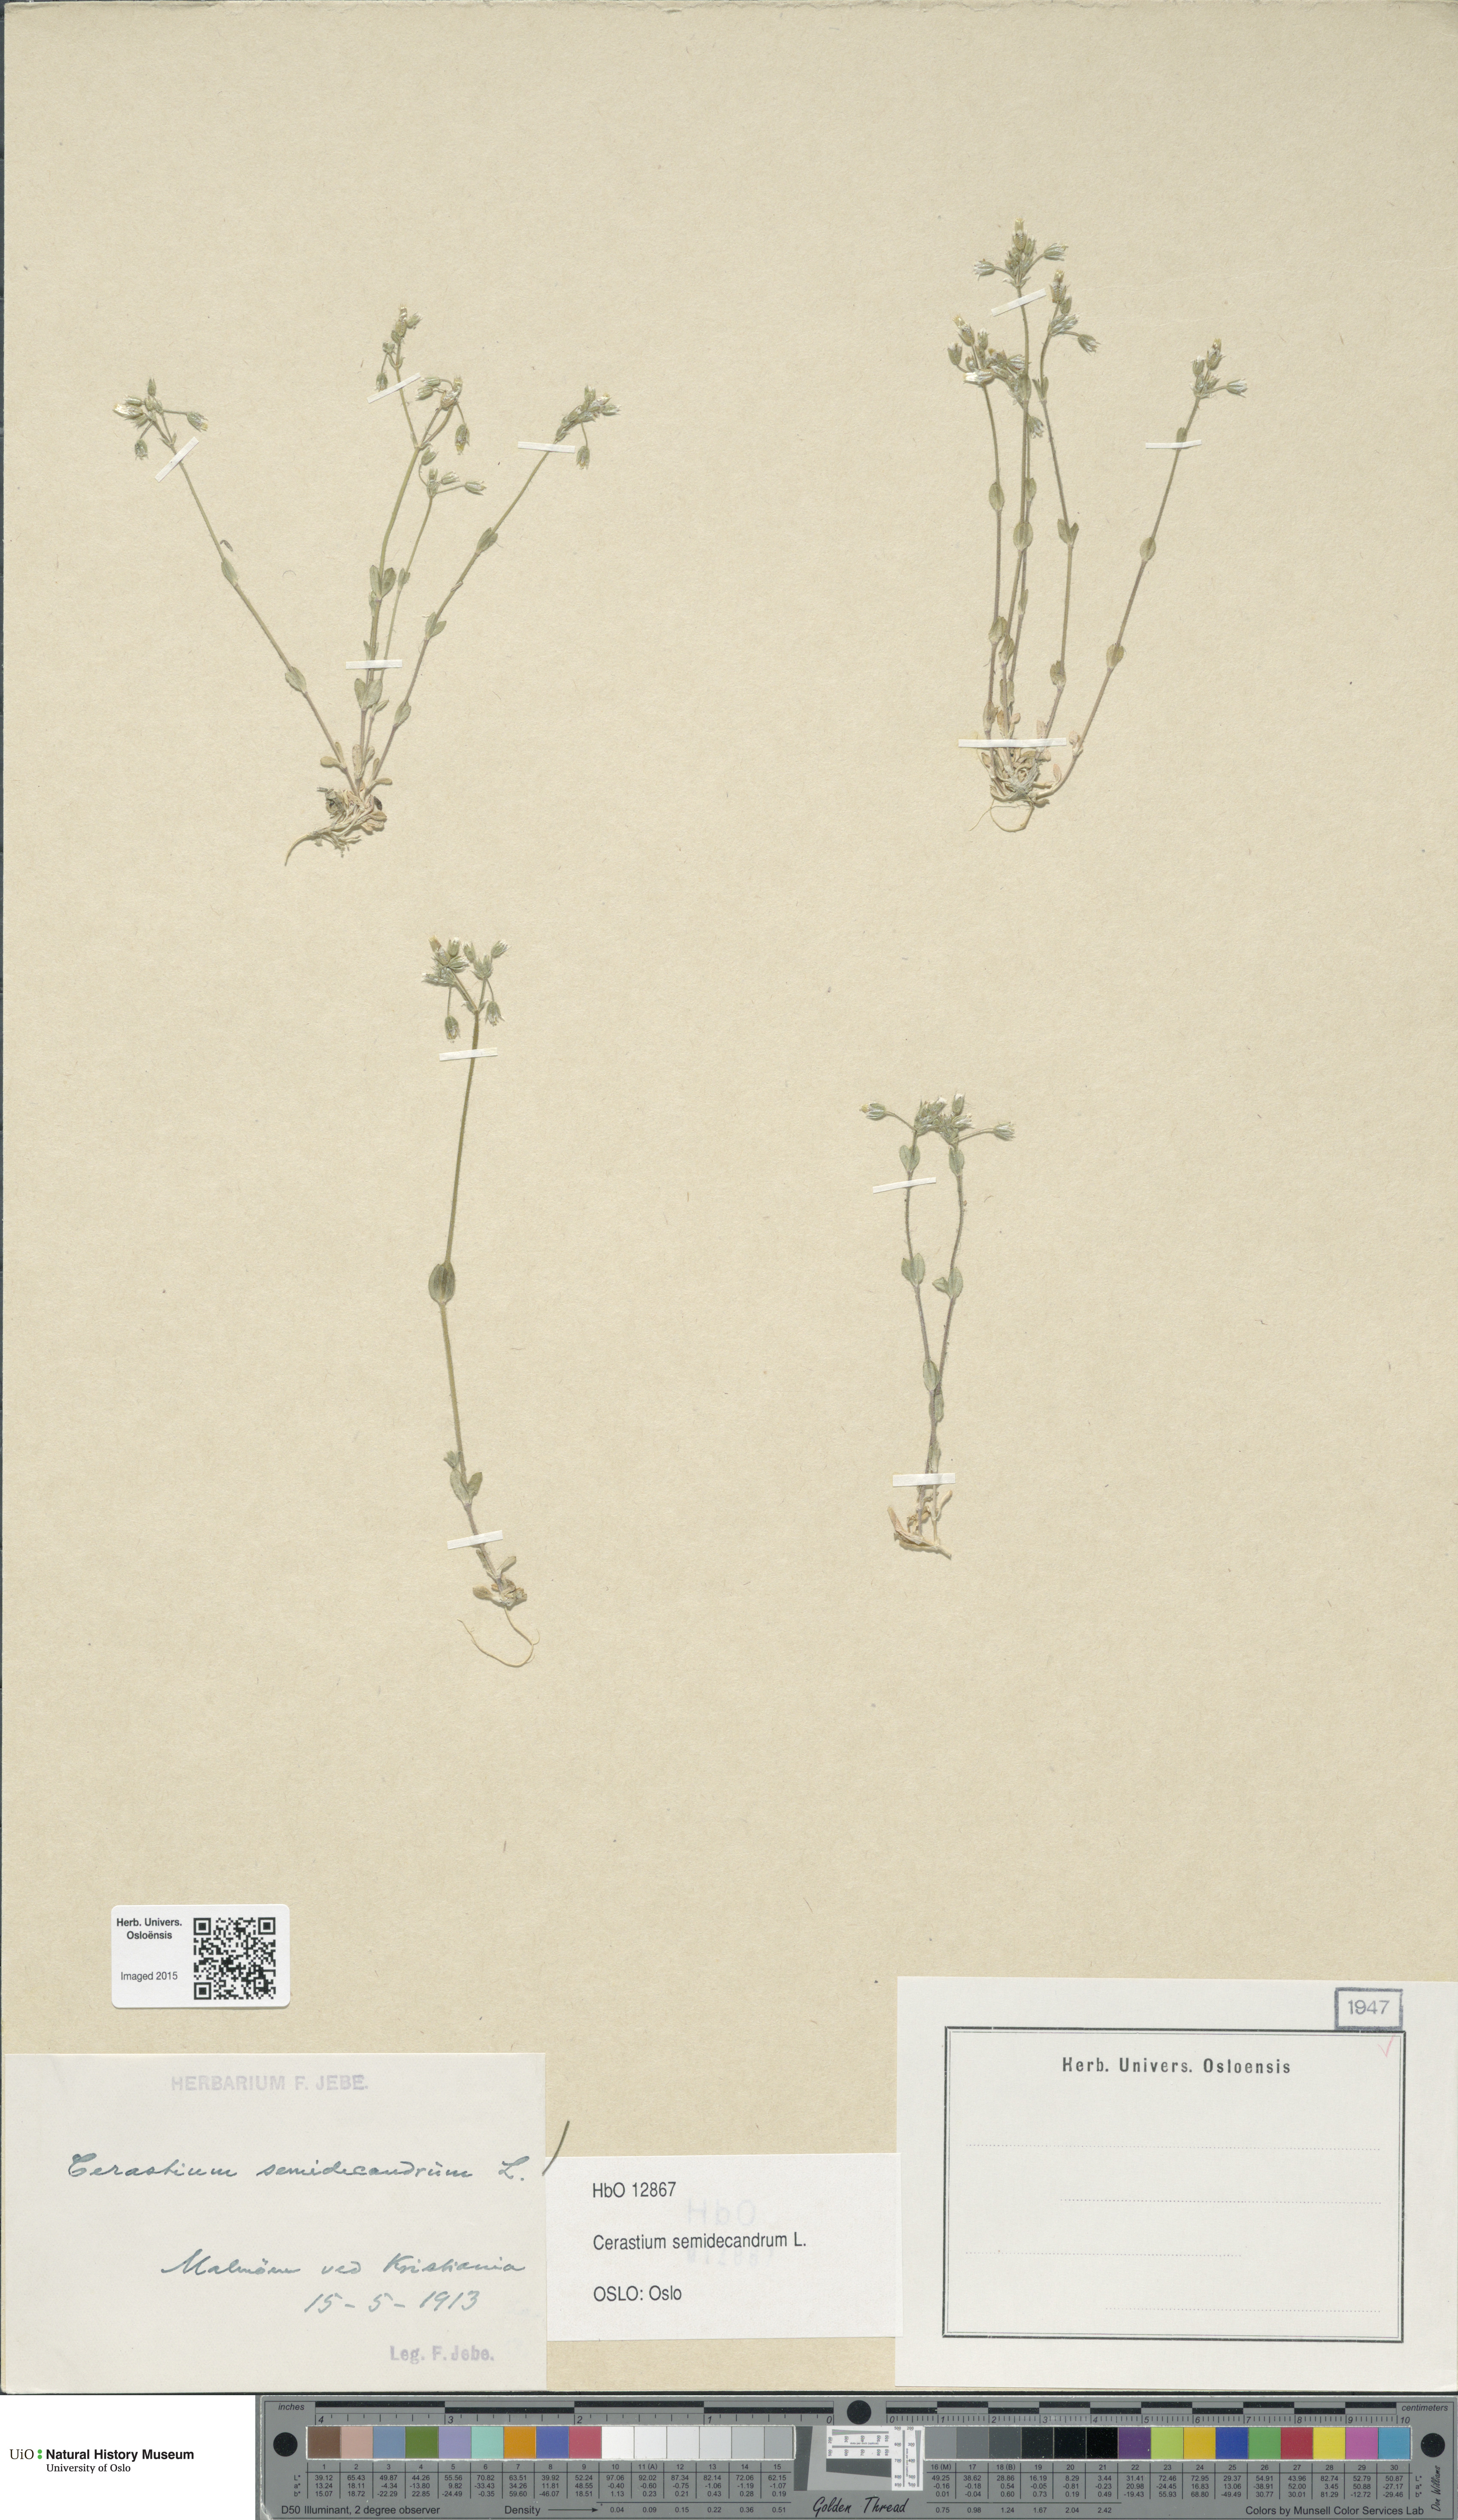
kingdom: Plantae
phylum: Tracheophyta
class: Magnoliopsida
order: Caryophyllales
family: Caryophyllaceae
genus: Cerastium
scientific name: Cerastium semidecandrum
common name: Little mouse-ear
